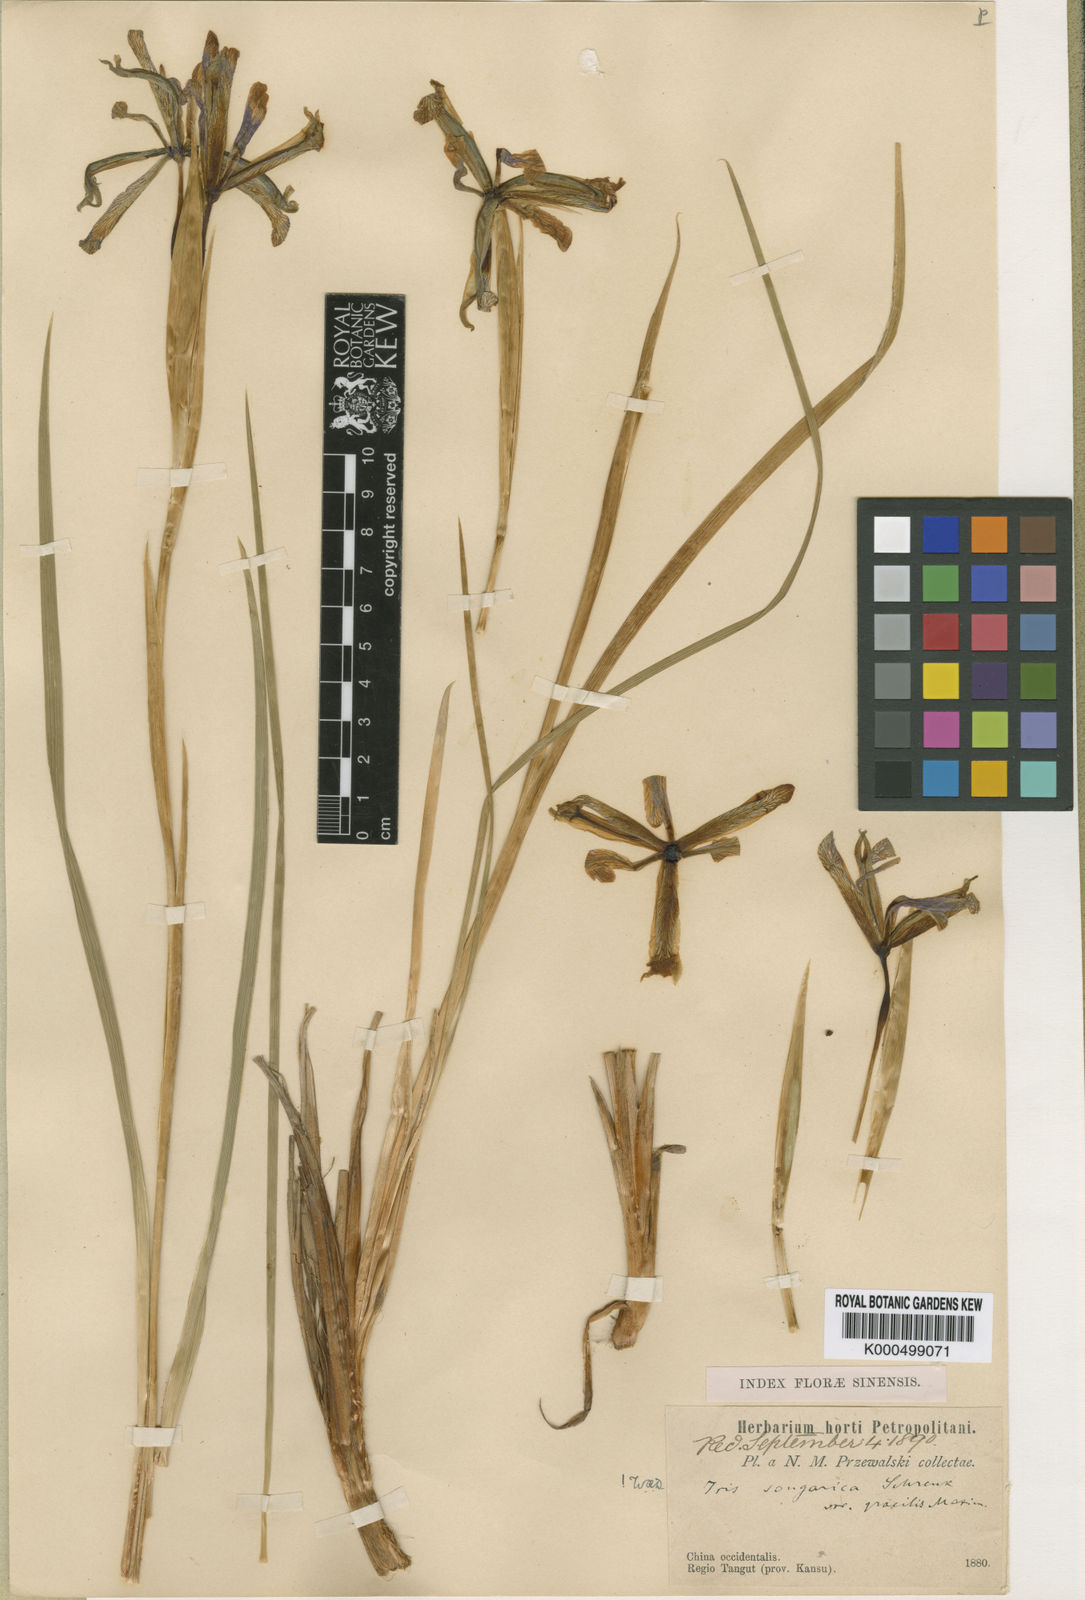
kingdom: Plantae
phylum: Tracheophyta
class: Liliopsida
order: Asparagales
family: Iridaceae
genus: Iris
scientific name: Iris farreri
